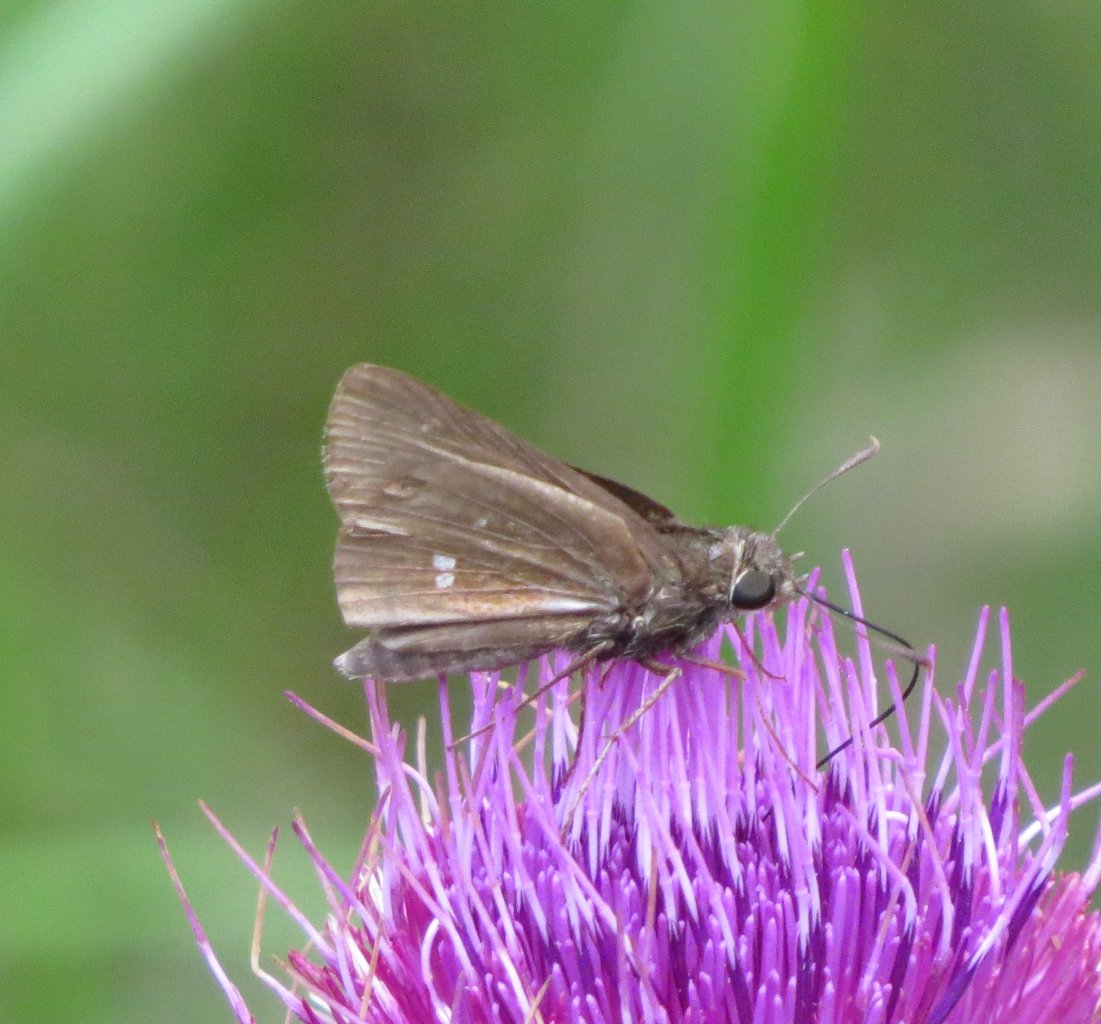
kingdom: Animalia
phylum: Arthropoda
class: Insecta
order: Lepidoptera
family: Hesperiidae
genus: Oligoria
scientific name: Oligoria maculata
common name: Twin-spot Skipper
